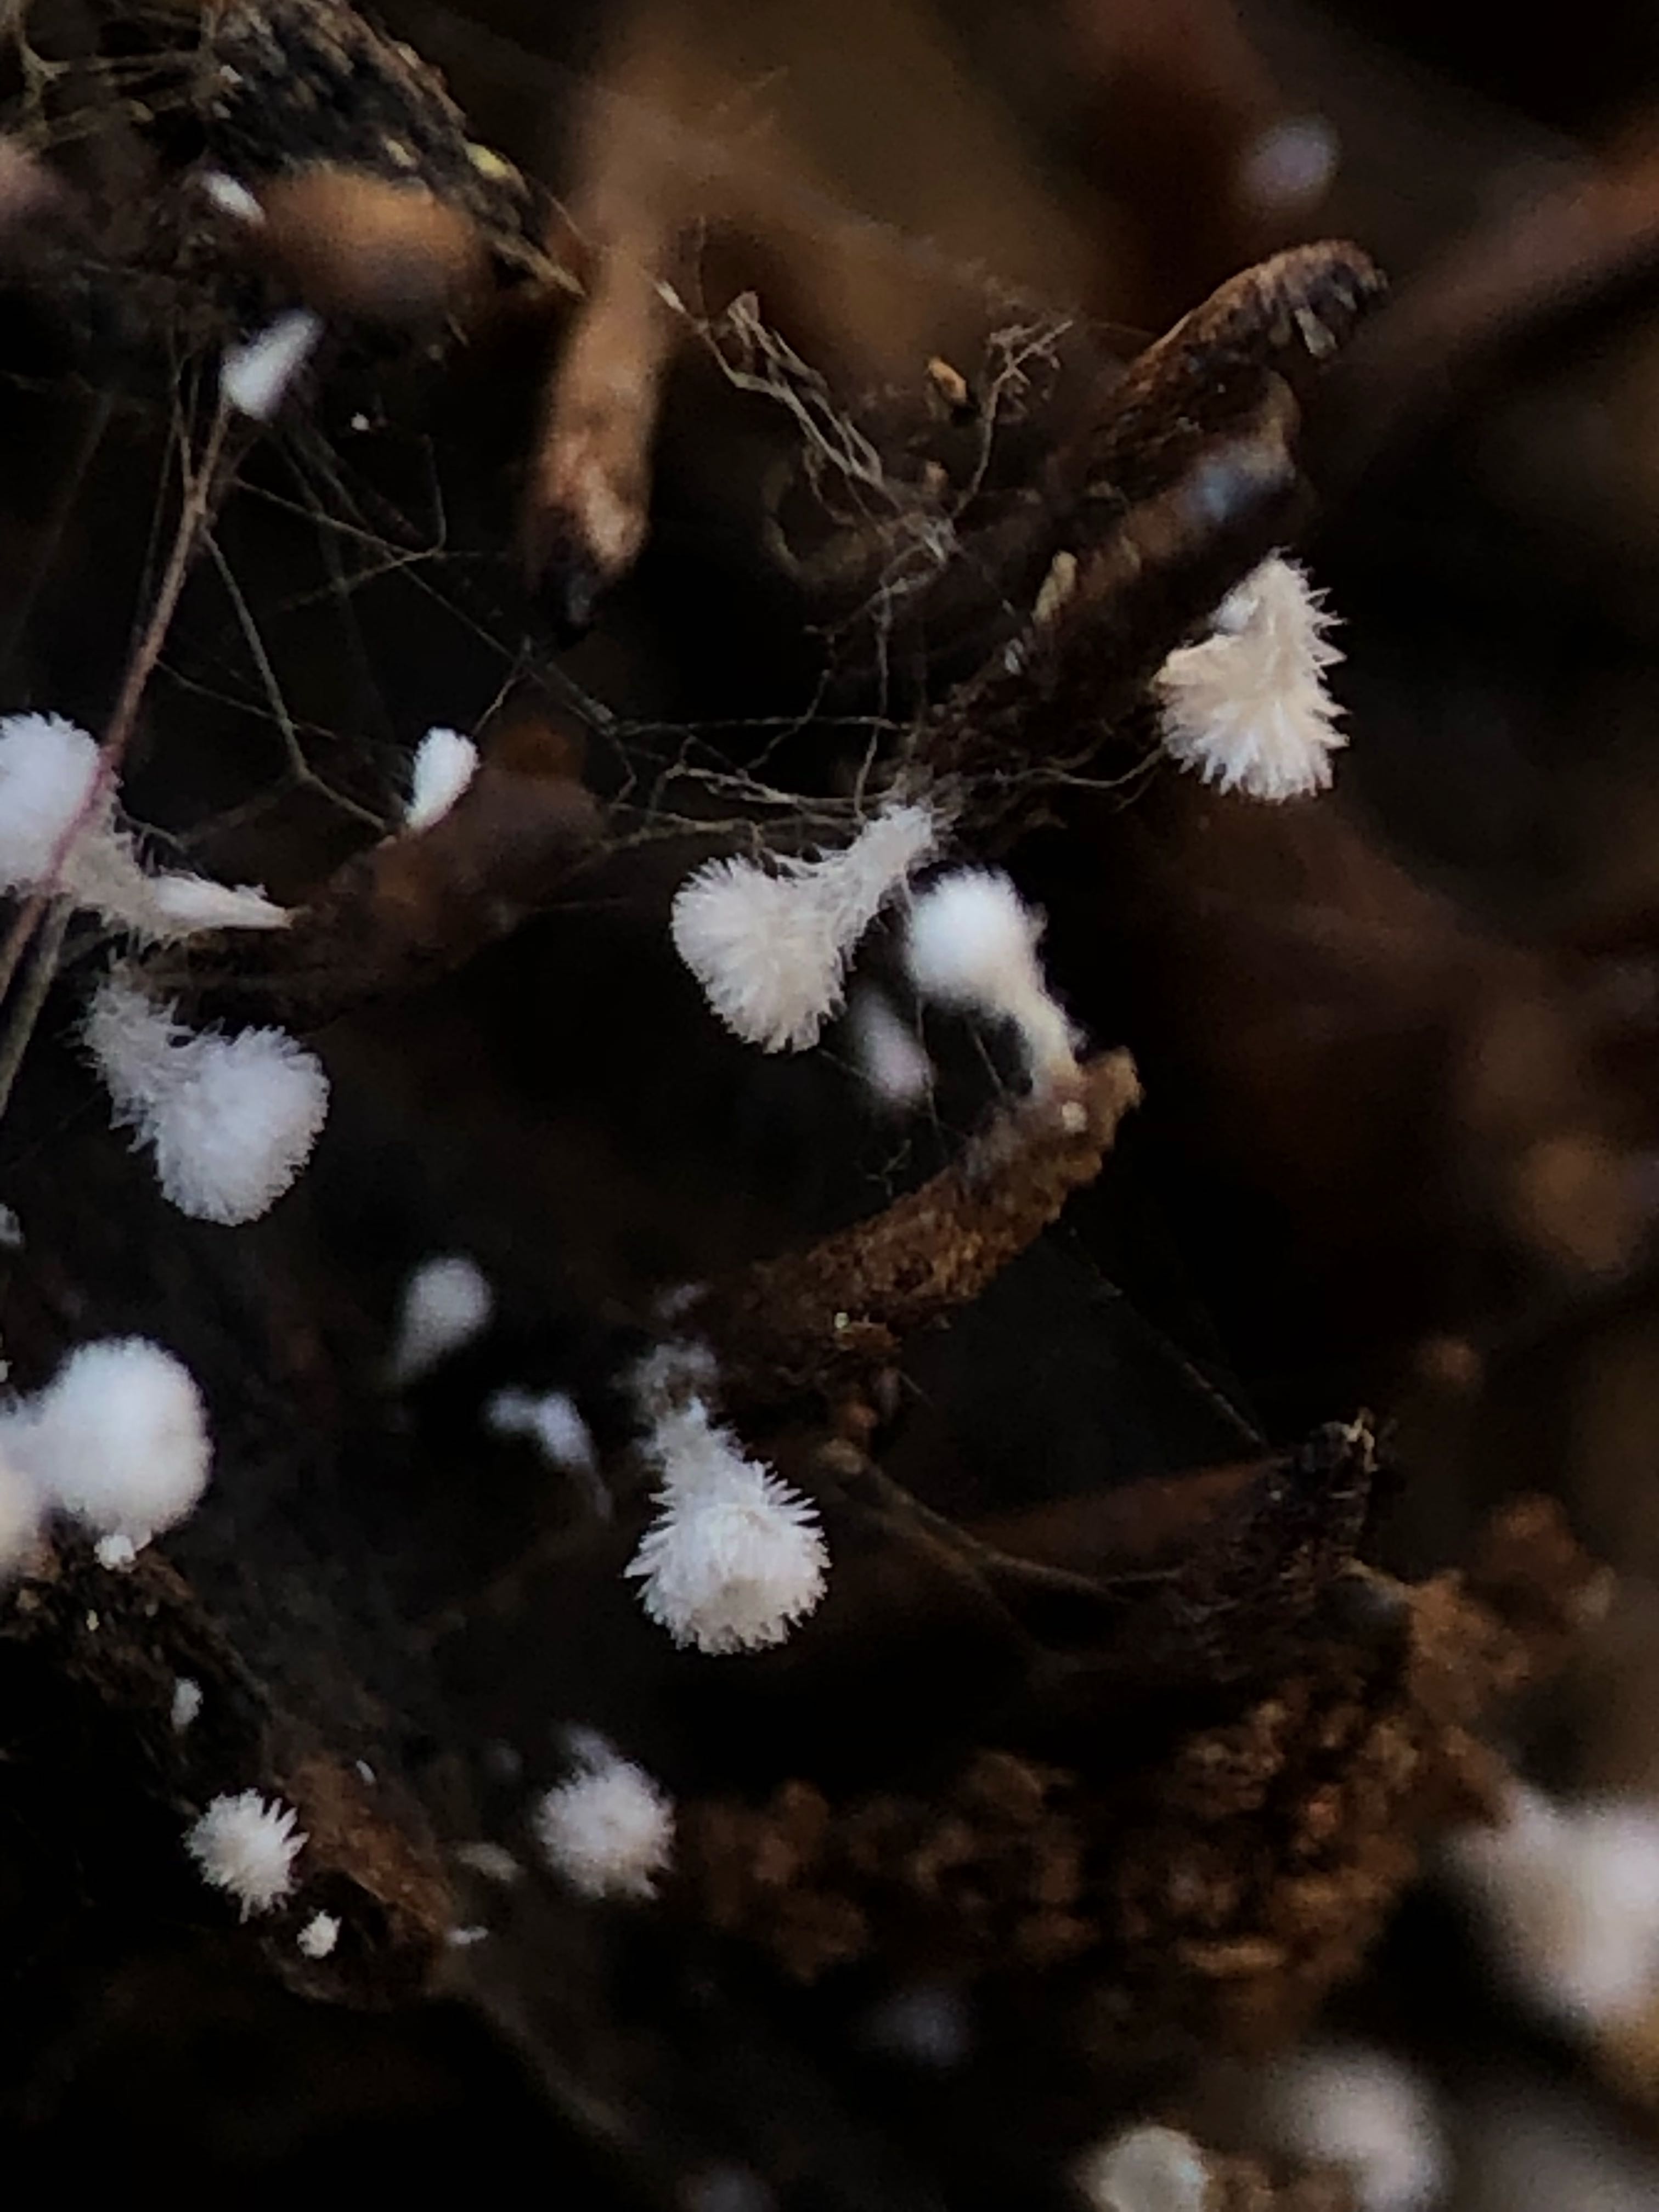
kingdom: Fungi
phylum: Ascomycota
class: Leotiomycetes
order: Helotiales
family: Lachnaceae
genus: Lachnum
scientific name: Lachnum virgineum
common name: jomfru-frynseskive
